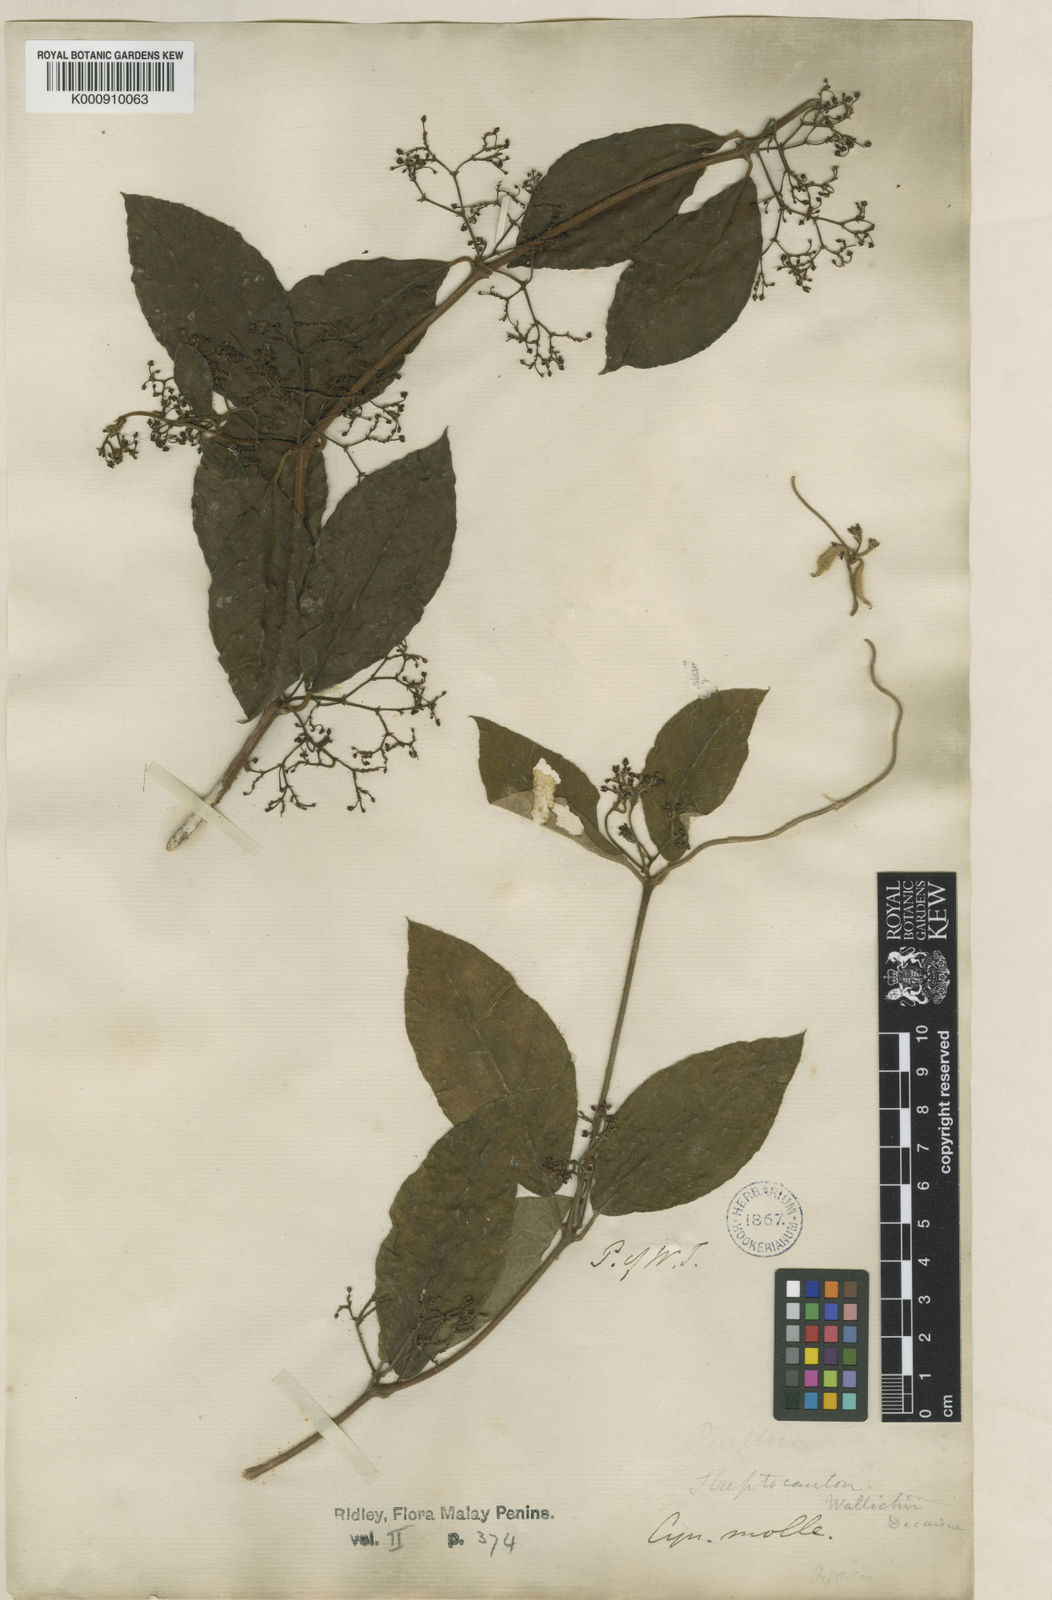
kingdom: Plantae
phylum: Tracheophyta
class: Magnoliopsida
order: Gentianales
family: Apocynaceae
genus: Streptocaulon
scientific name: Streptocaulon wallichii
